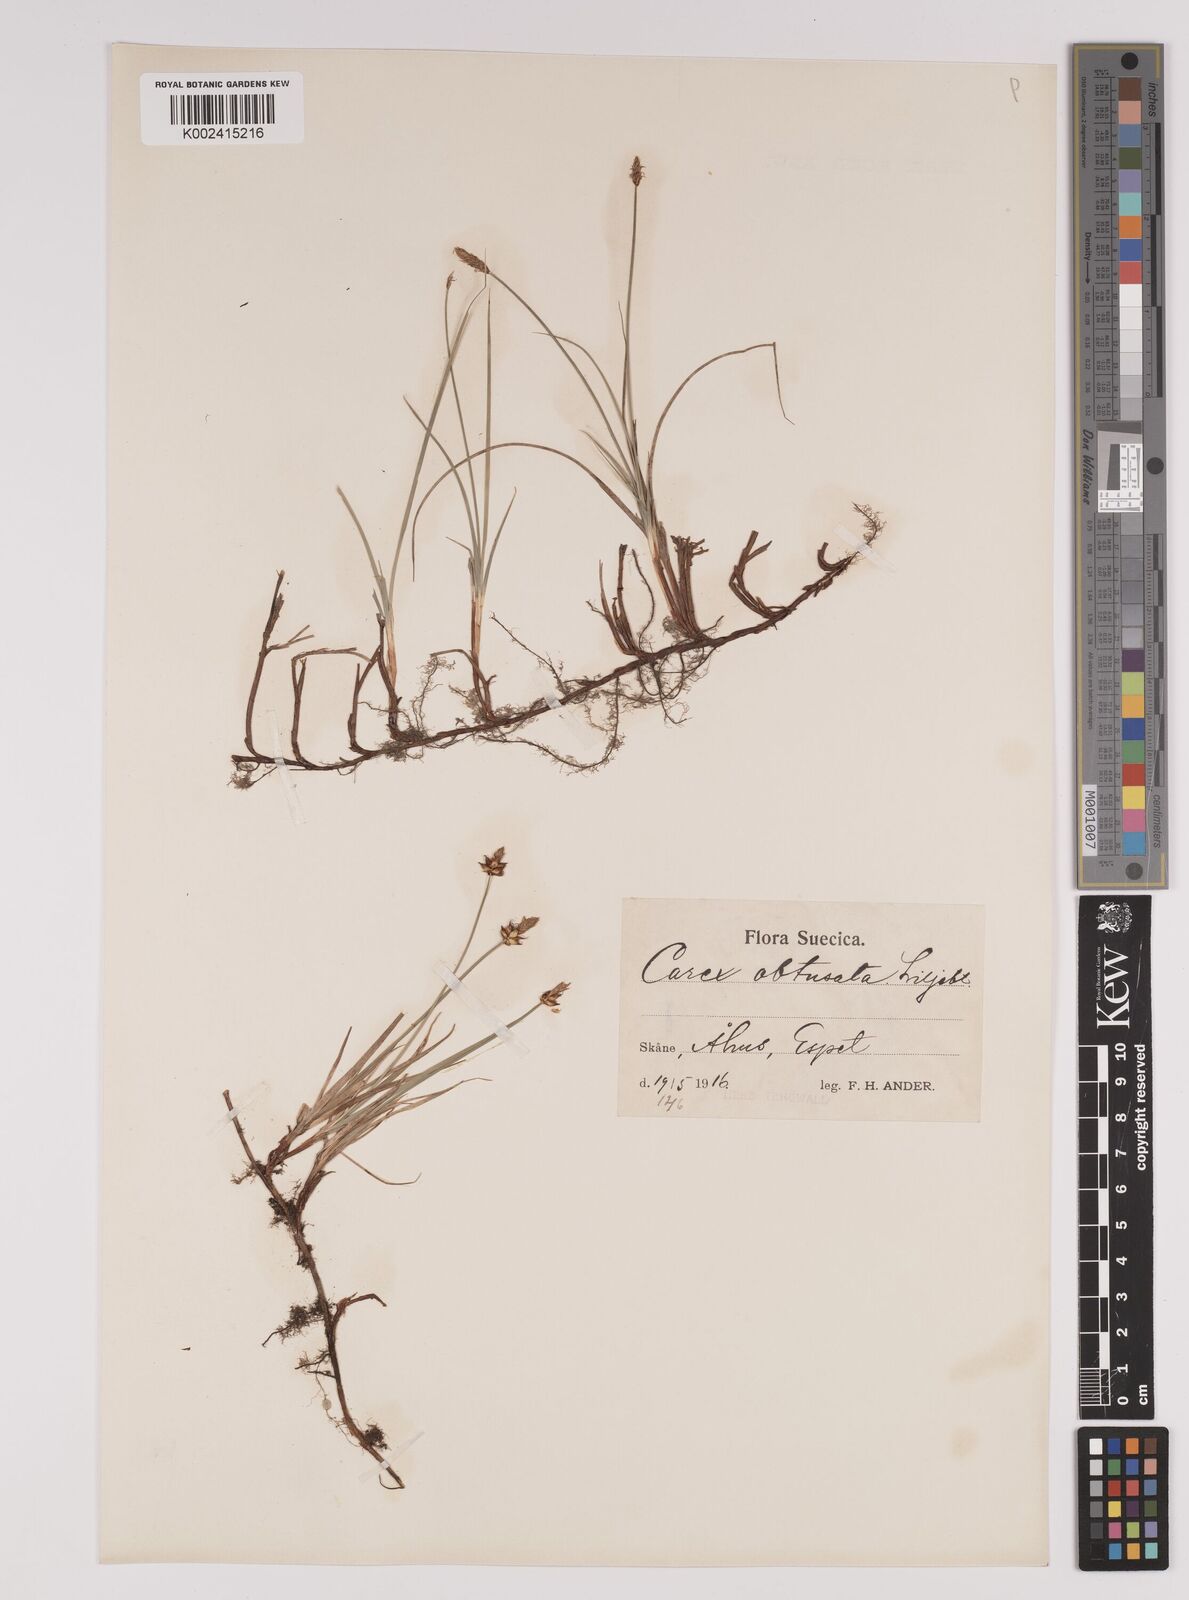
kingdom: Plantae
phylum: Tracheophyta
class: Liliopsida
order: Poales
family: Cyperaceae
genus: Carex
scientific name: Carex obtusata
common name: Blunt sedge
